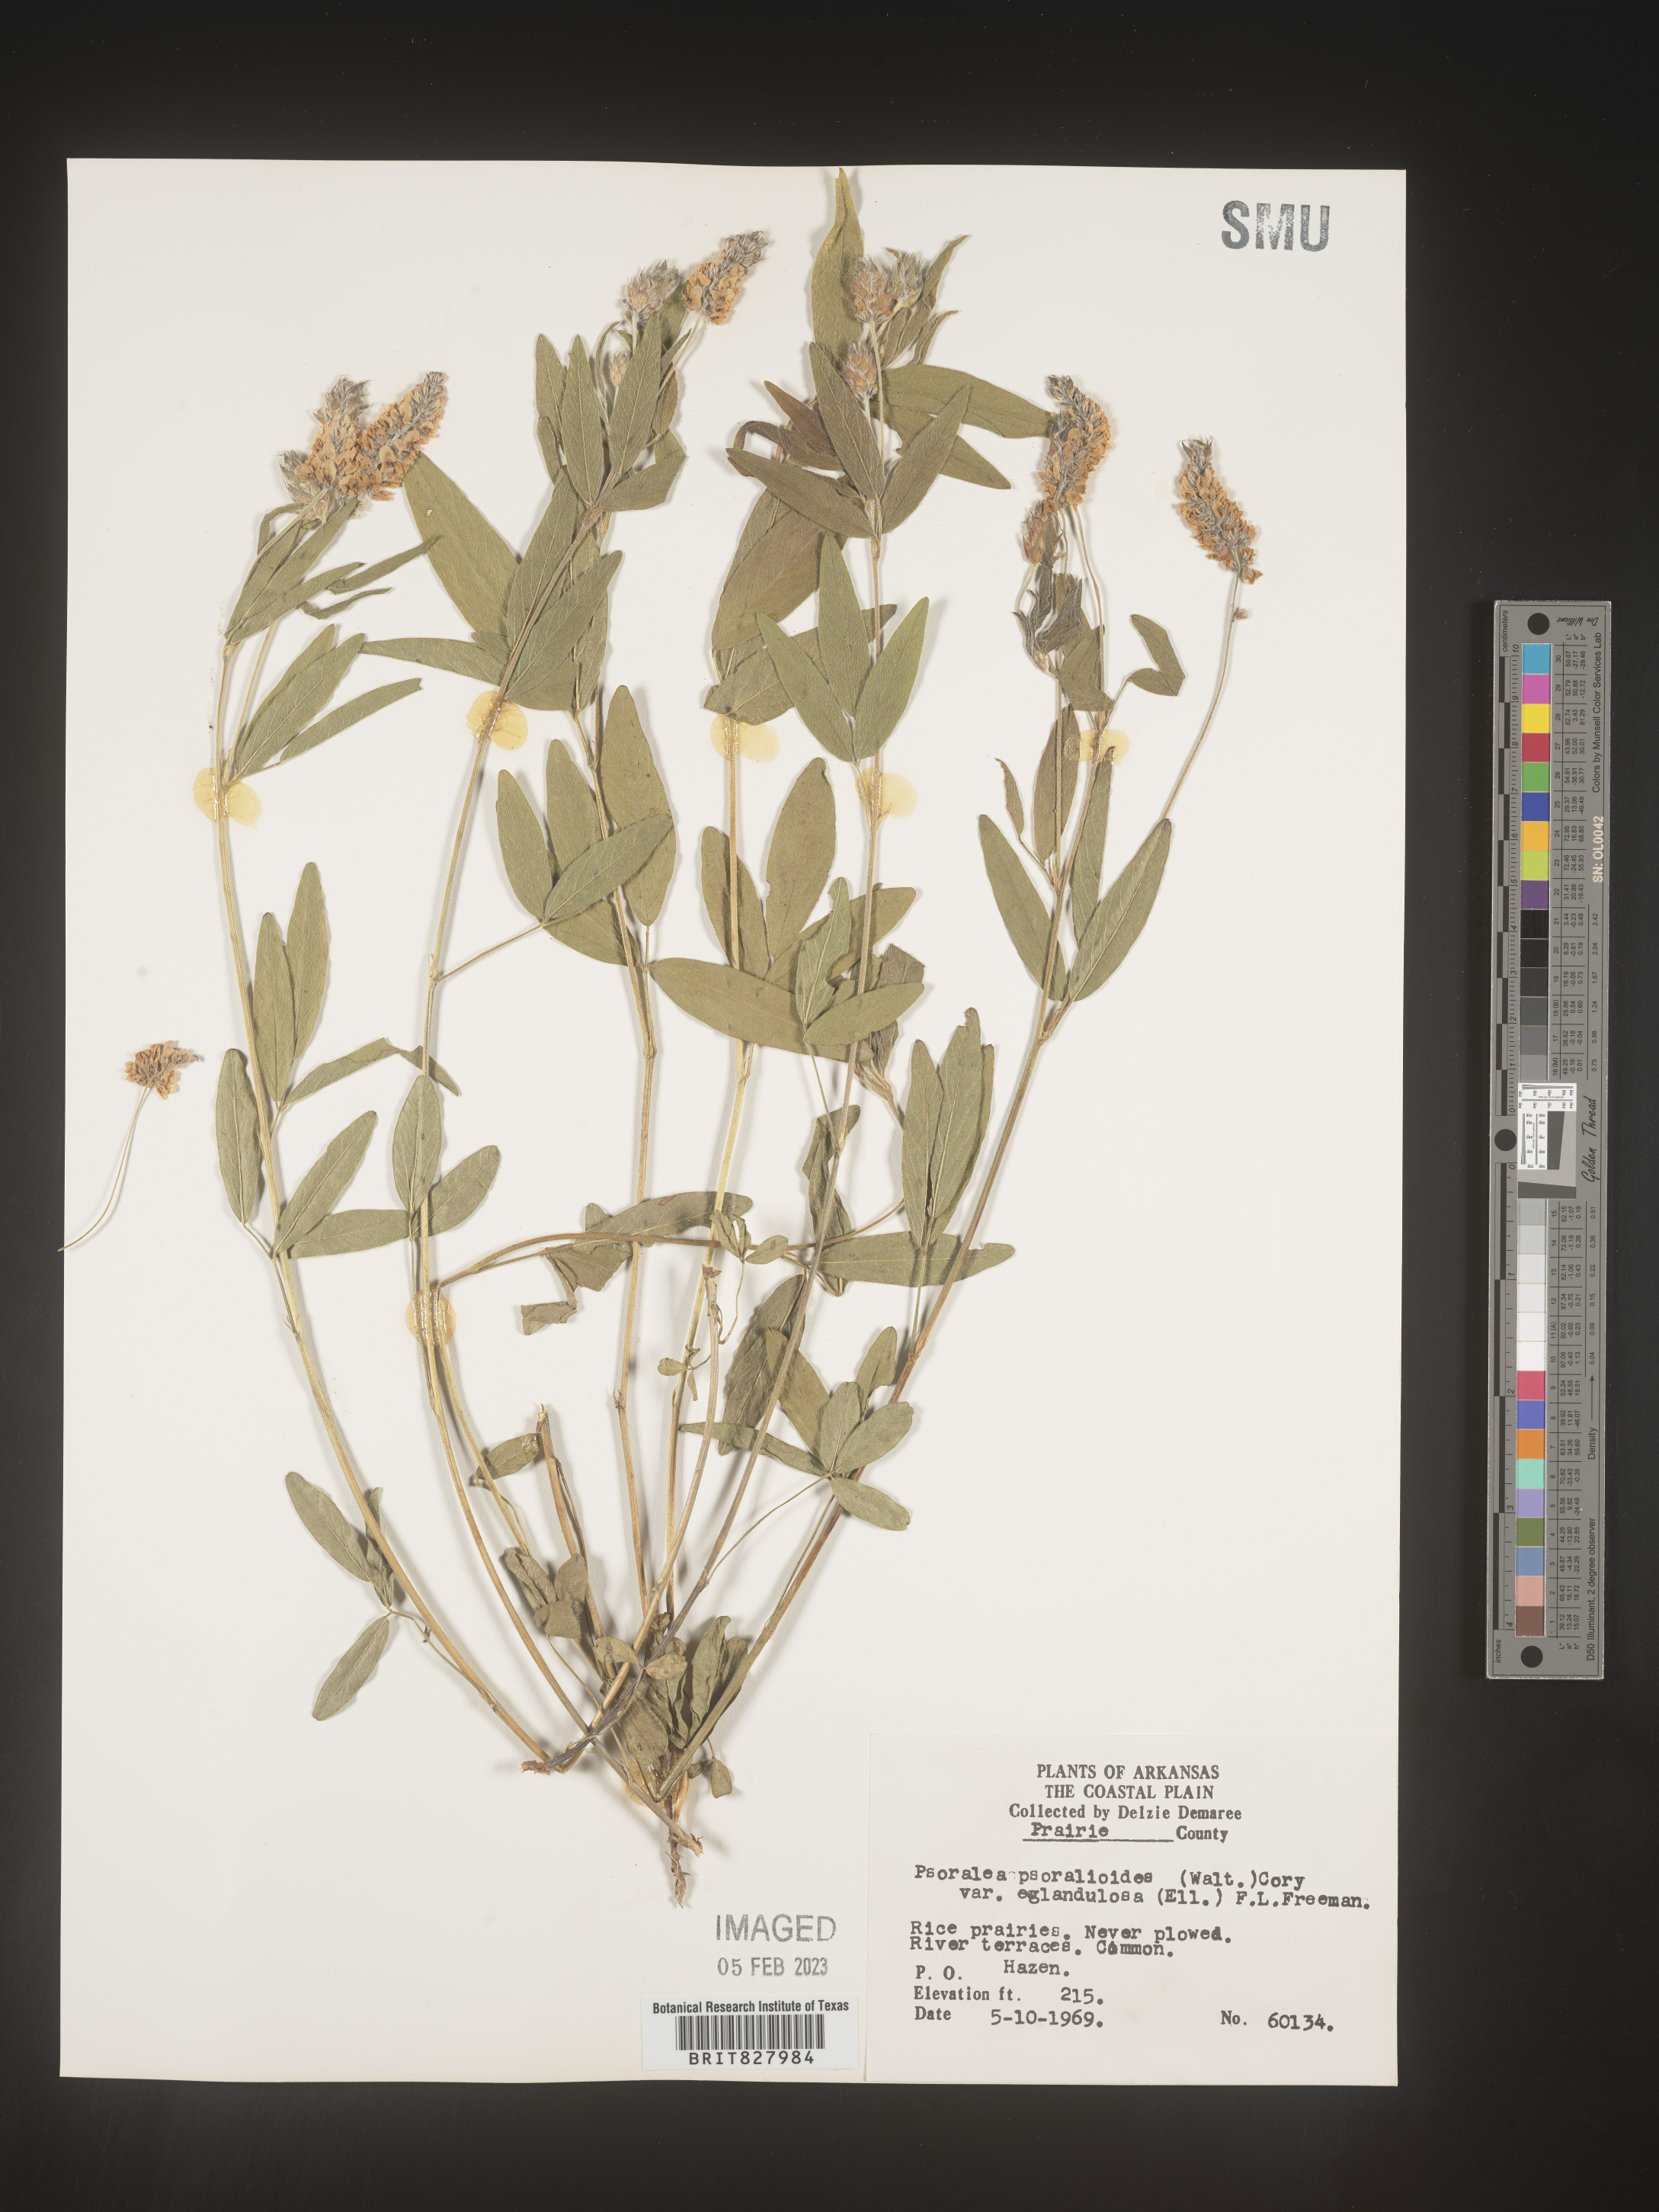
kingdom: Plantae
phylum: Tracheophyta
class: Magnoliopsida
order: Fabales
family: Fabaceae
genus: Orbexilum
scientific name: Orbexilum pedunculatum
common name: Sampson's snakeroot
